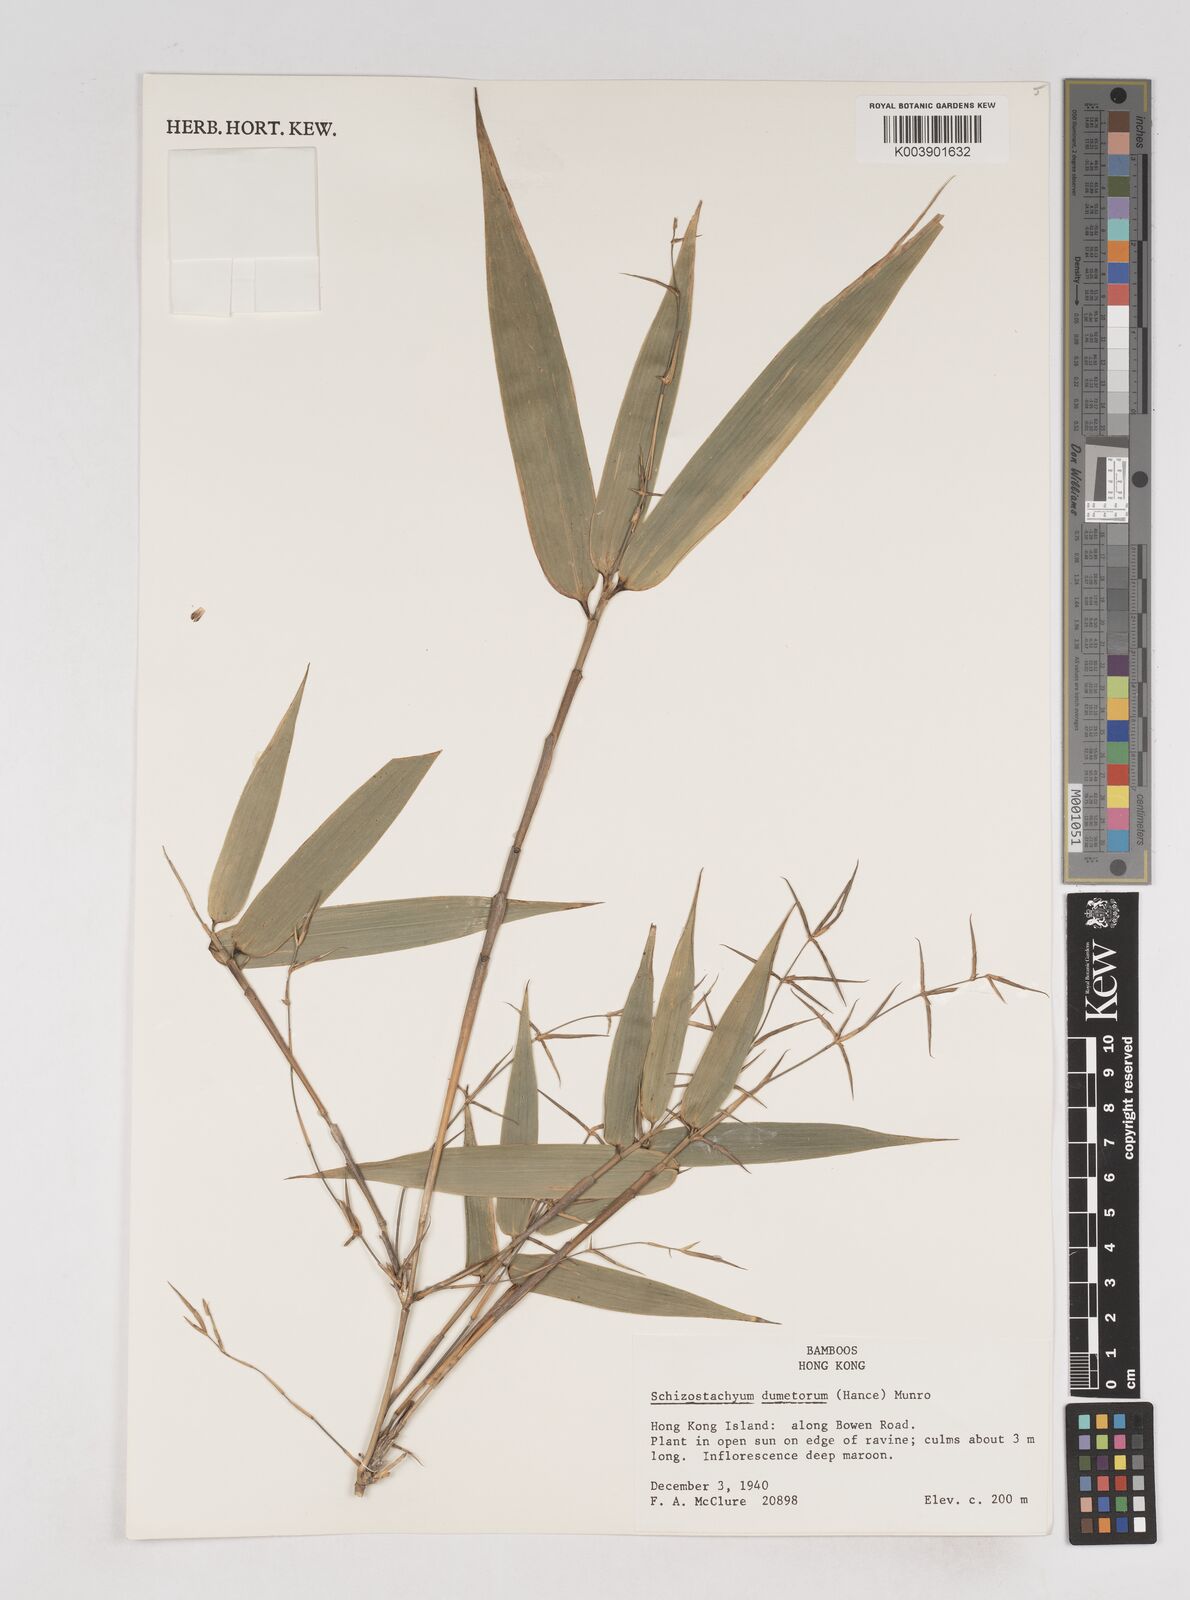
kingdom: Plantae
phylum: Tracheophyta
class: Liliopsida
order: Poales
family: Poaceae
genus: Schizostachyum
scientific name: Schizostachyum dumetorum
